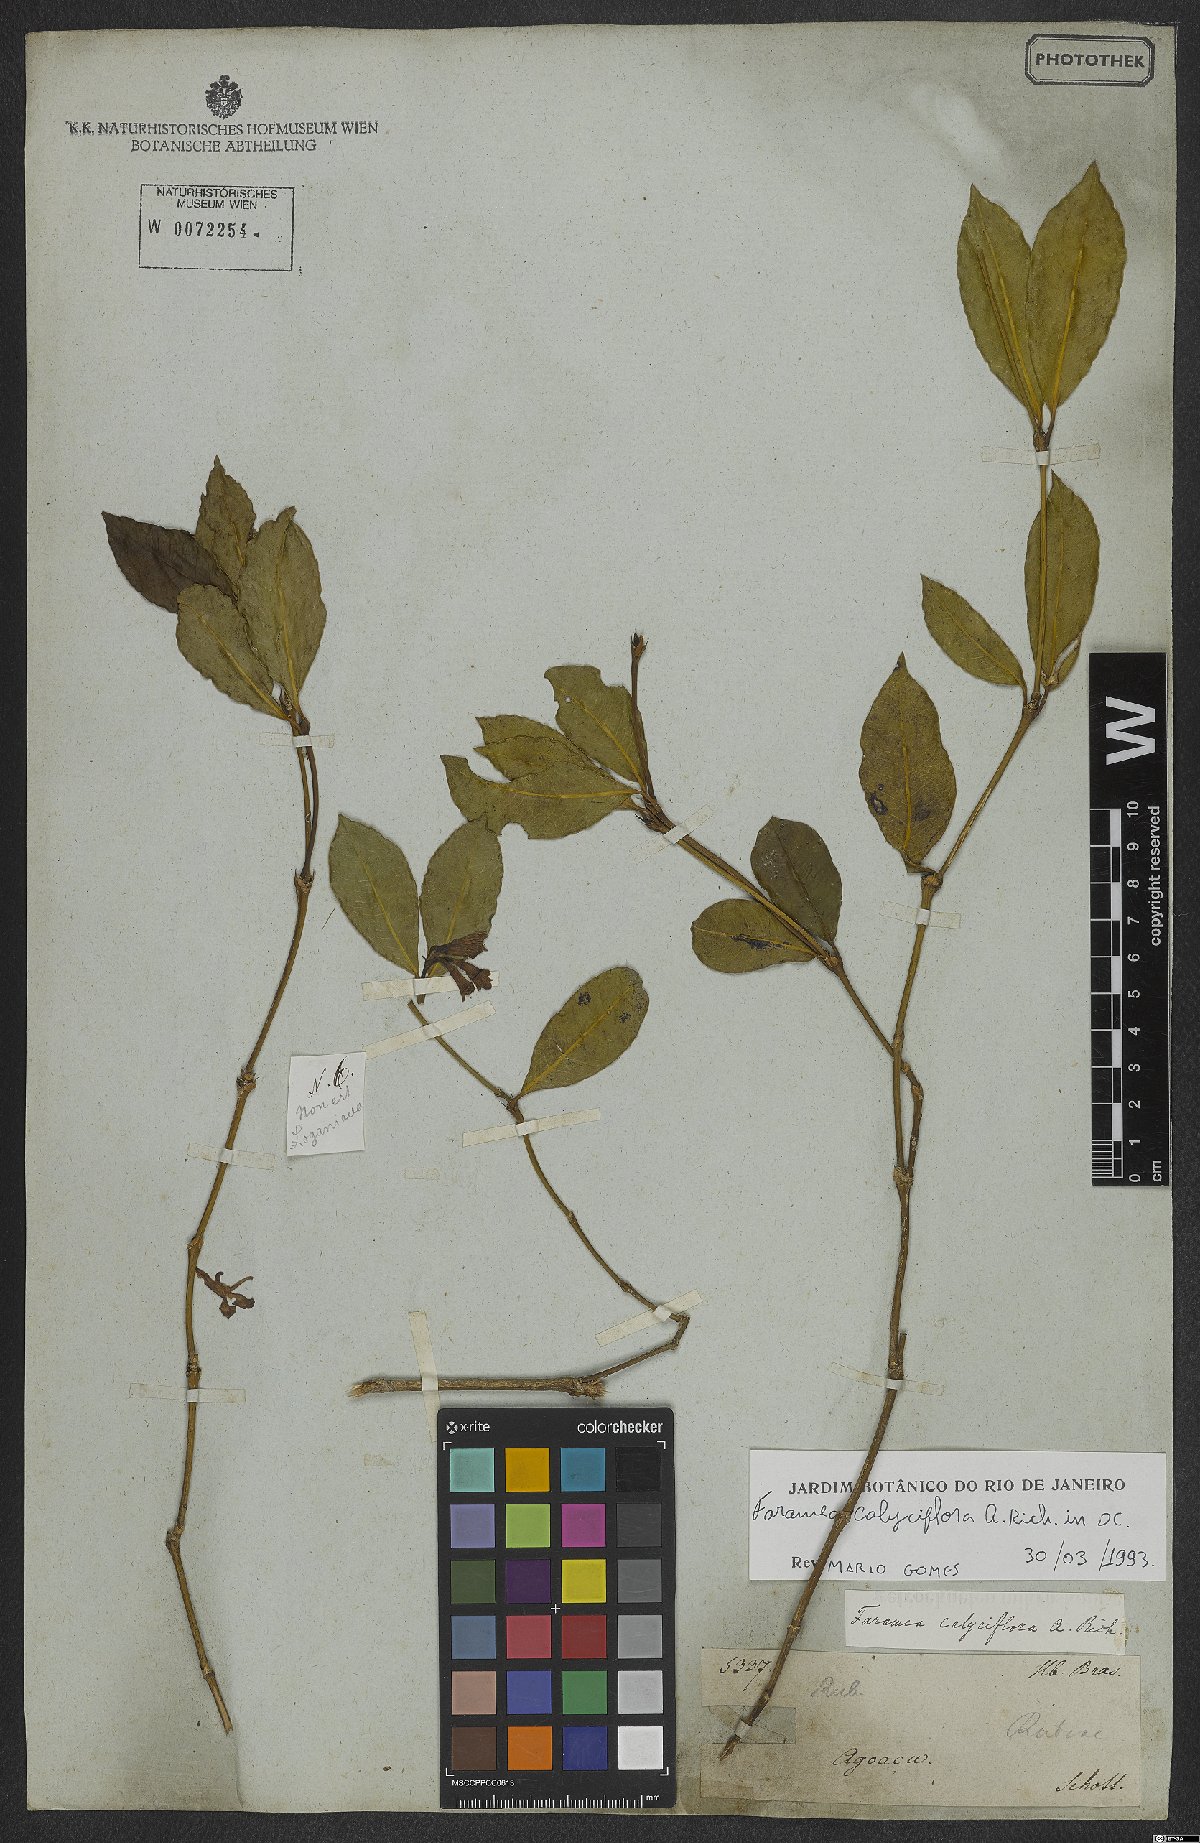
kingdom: Plantae
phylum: Tracheophyta
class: Magnoliopsida
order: Gentianales
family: Rubiaceae
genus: Faramea
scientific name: Faramea calyciflora
